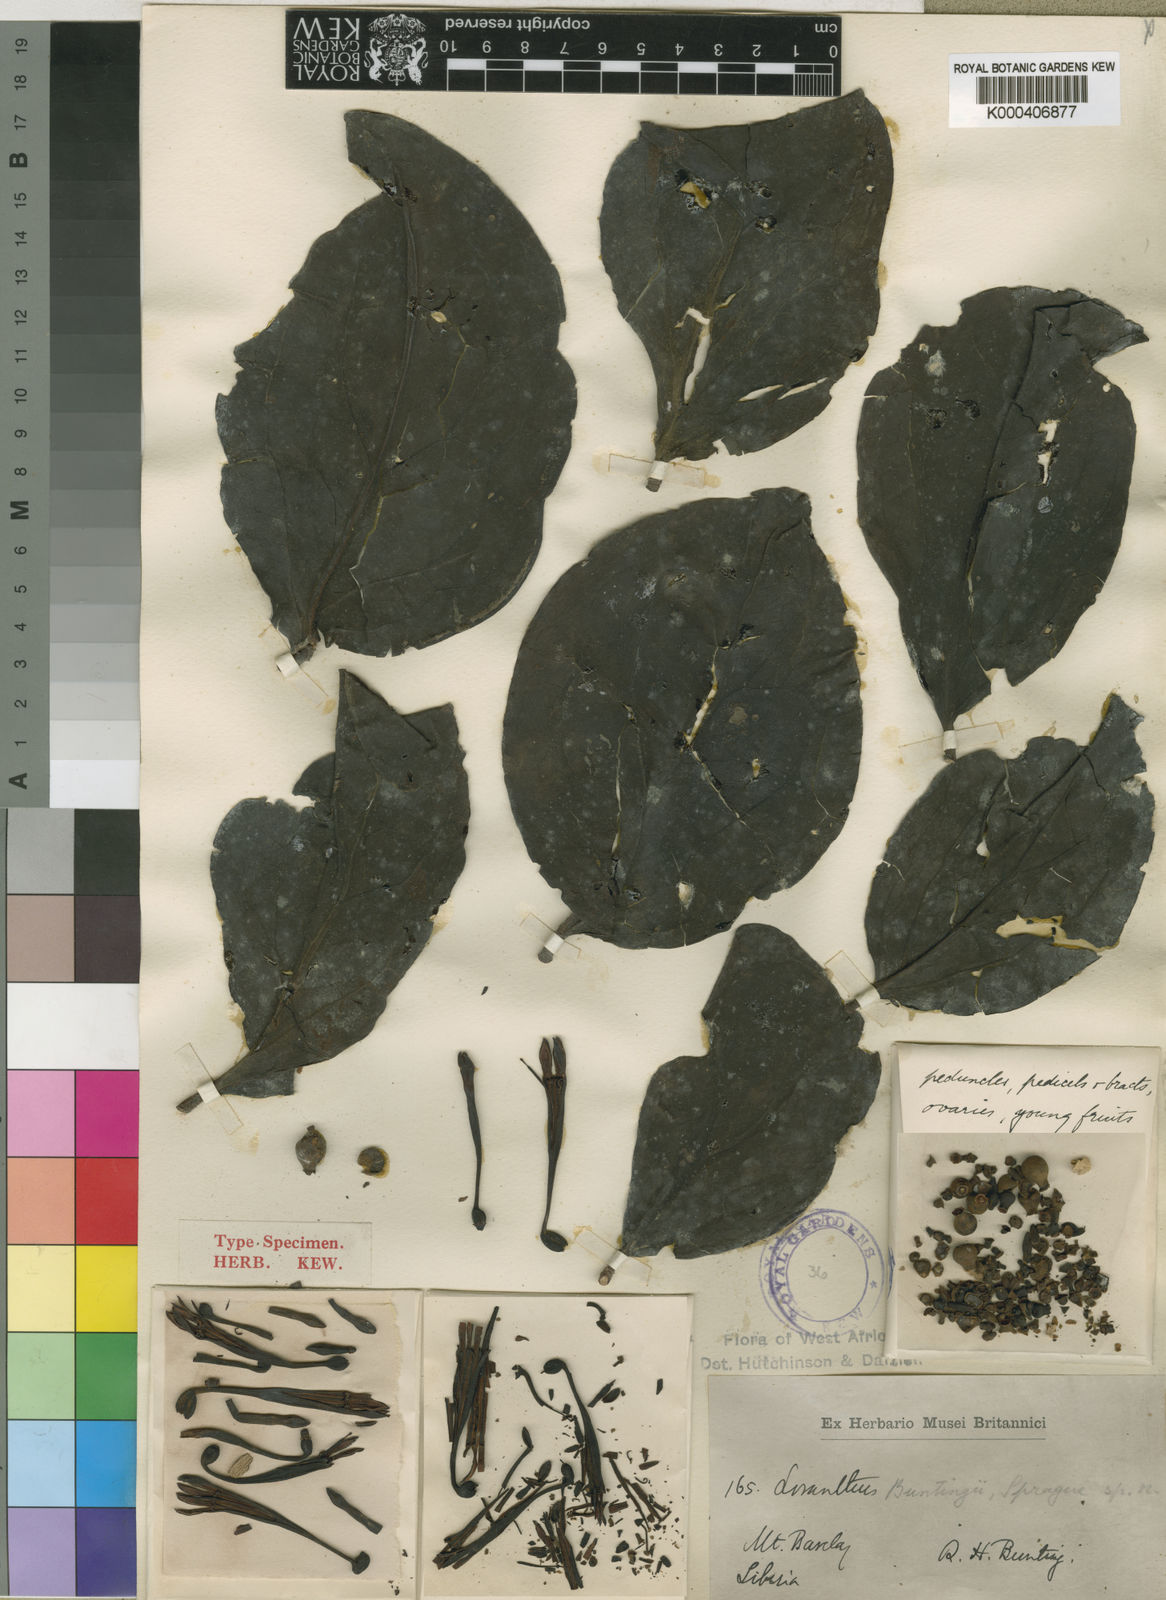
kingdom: Plantae
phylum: Tracheophyta
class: Magnoliopsida
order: Santalales
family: Loranthaceae
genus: Tapinanthus
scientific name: Tapinanthus buntingii
